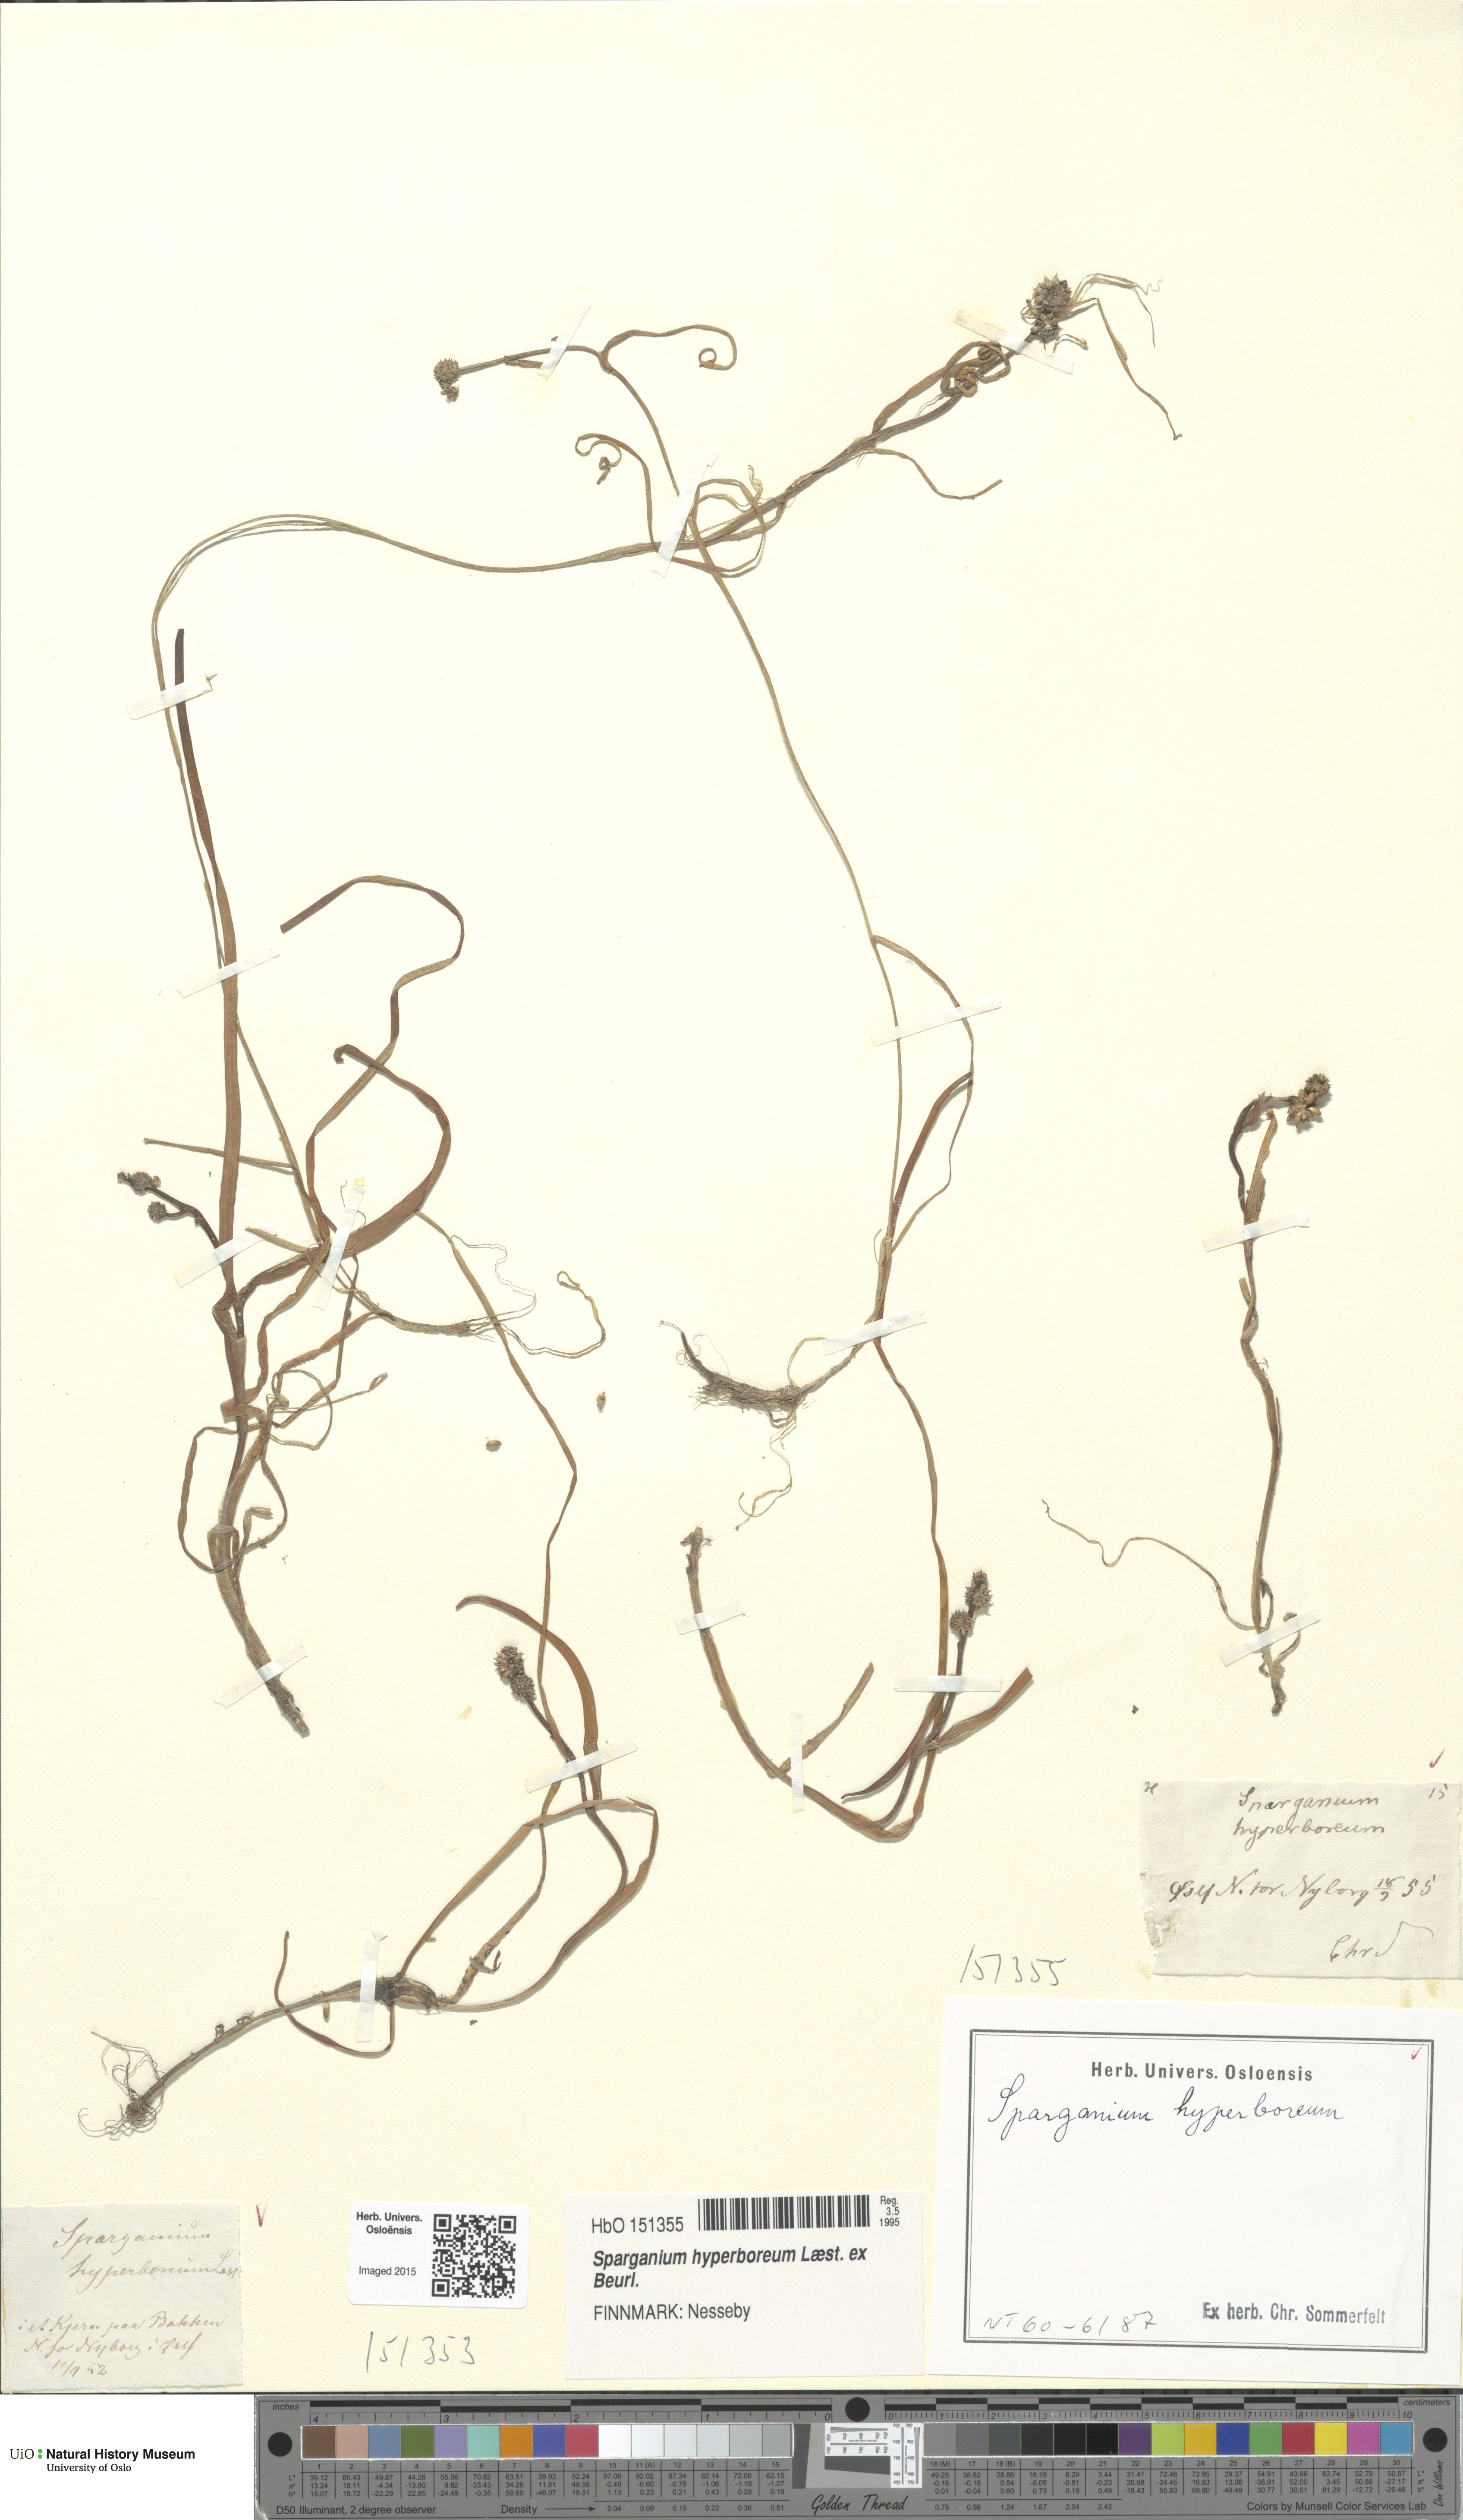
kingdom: Plantae
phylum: Tracheophyta
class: Liliopsida
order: Poales
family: Typhaceae
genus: Sparganium
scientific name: Sparganium hyperboreum
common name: Arctic burreed
